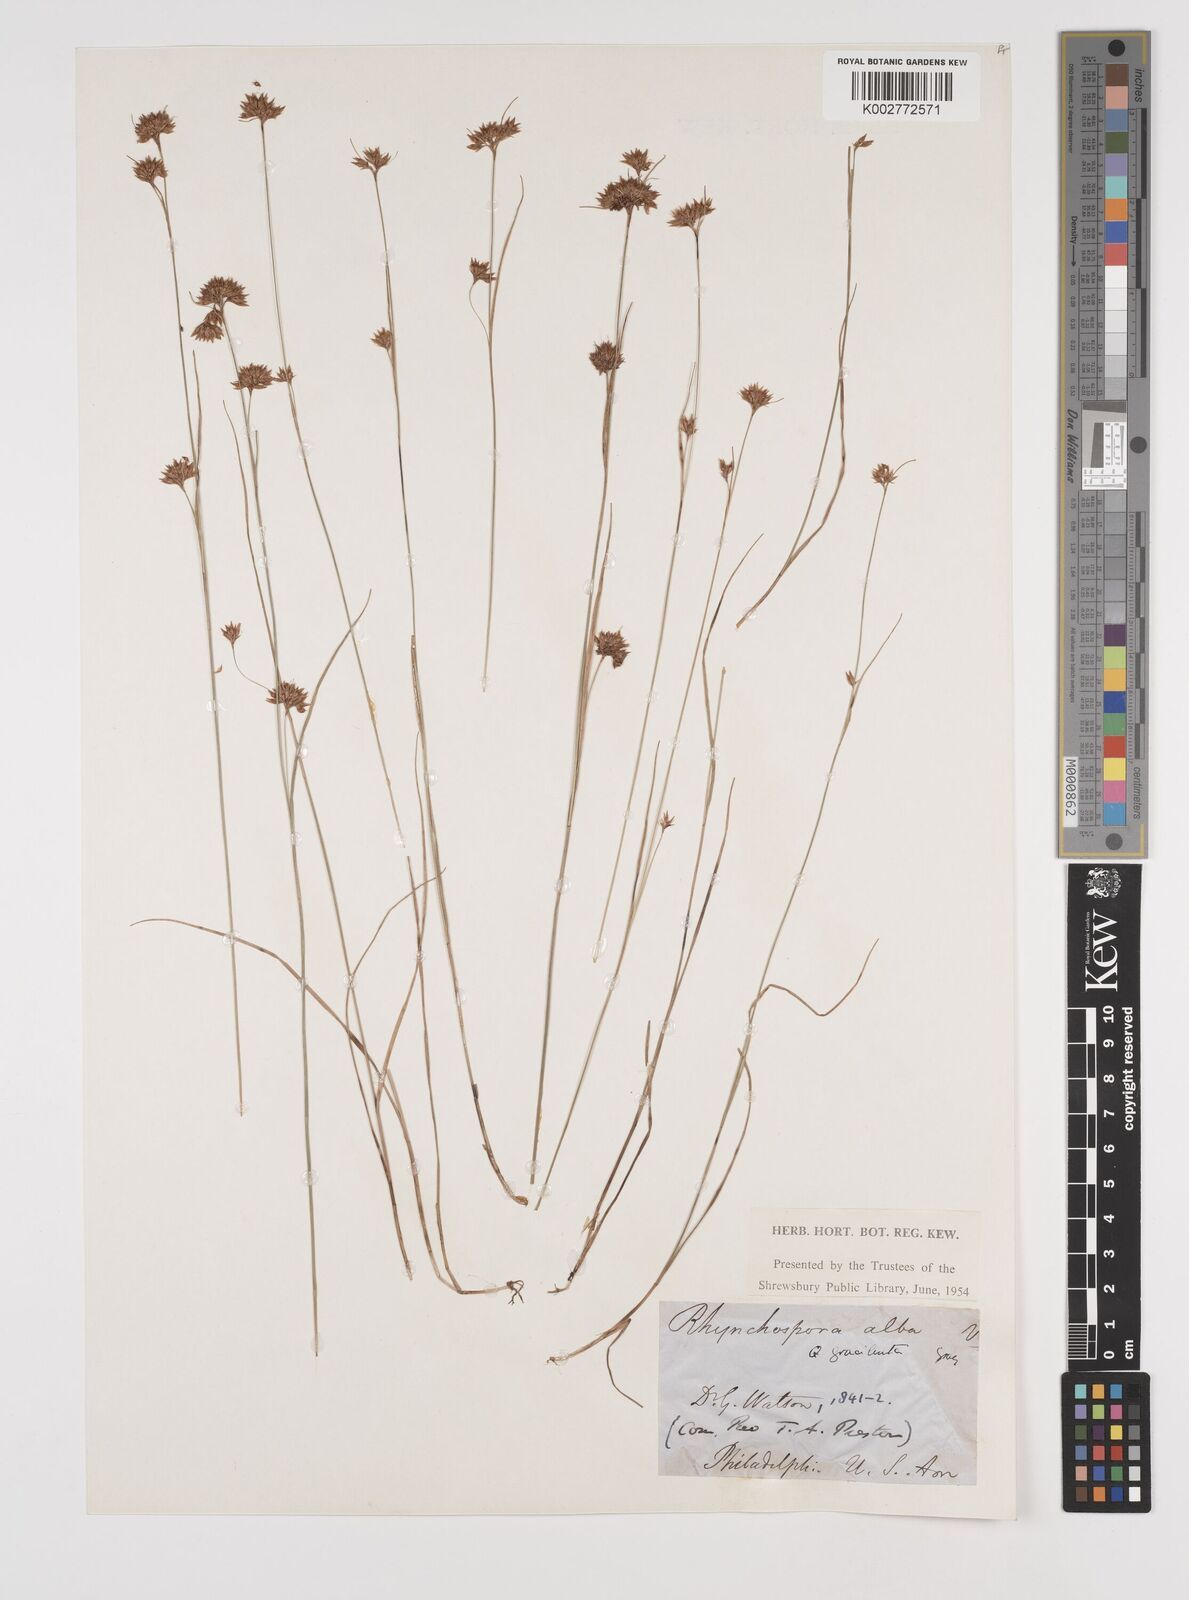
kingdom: Plantae
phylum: Tracheophyta
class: Liliopsida
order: Poales
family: Cyperaceae
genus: Rhynchospora
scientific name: Rhynchospora alba
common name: White beak-sedge
